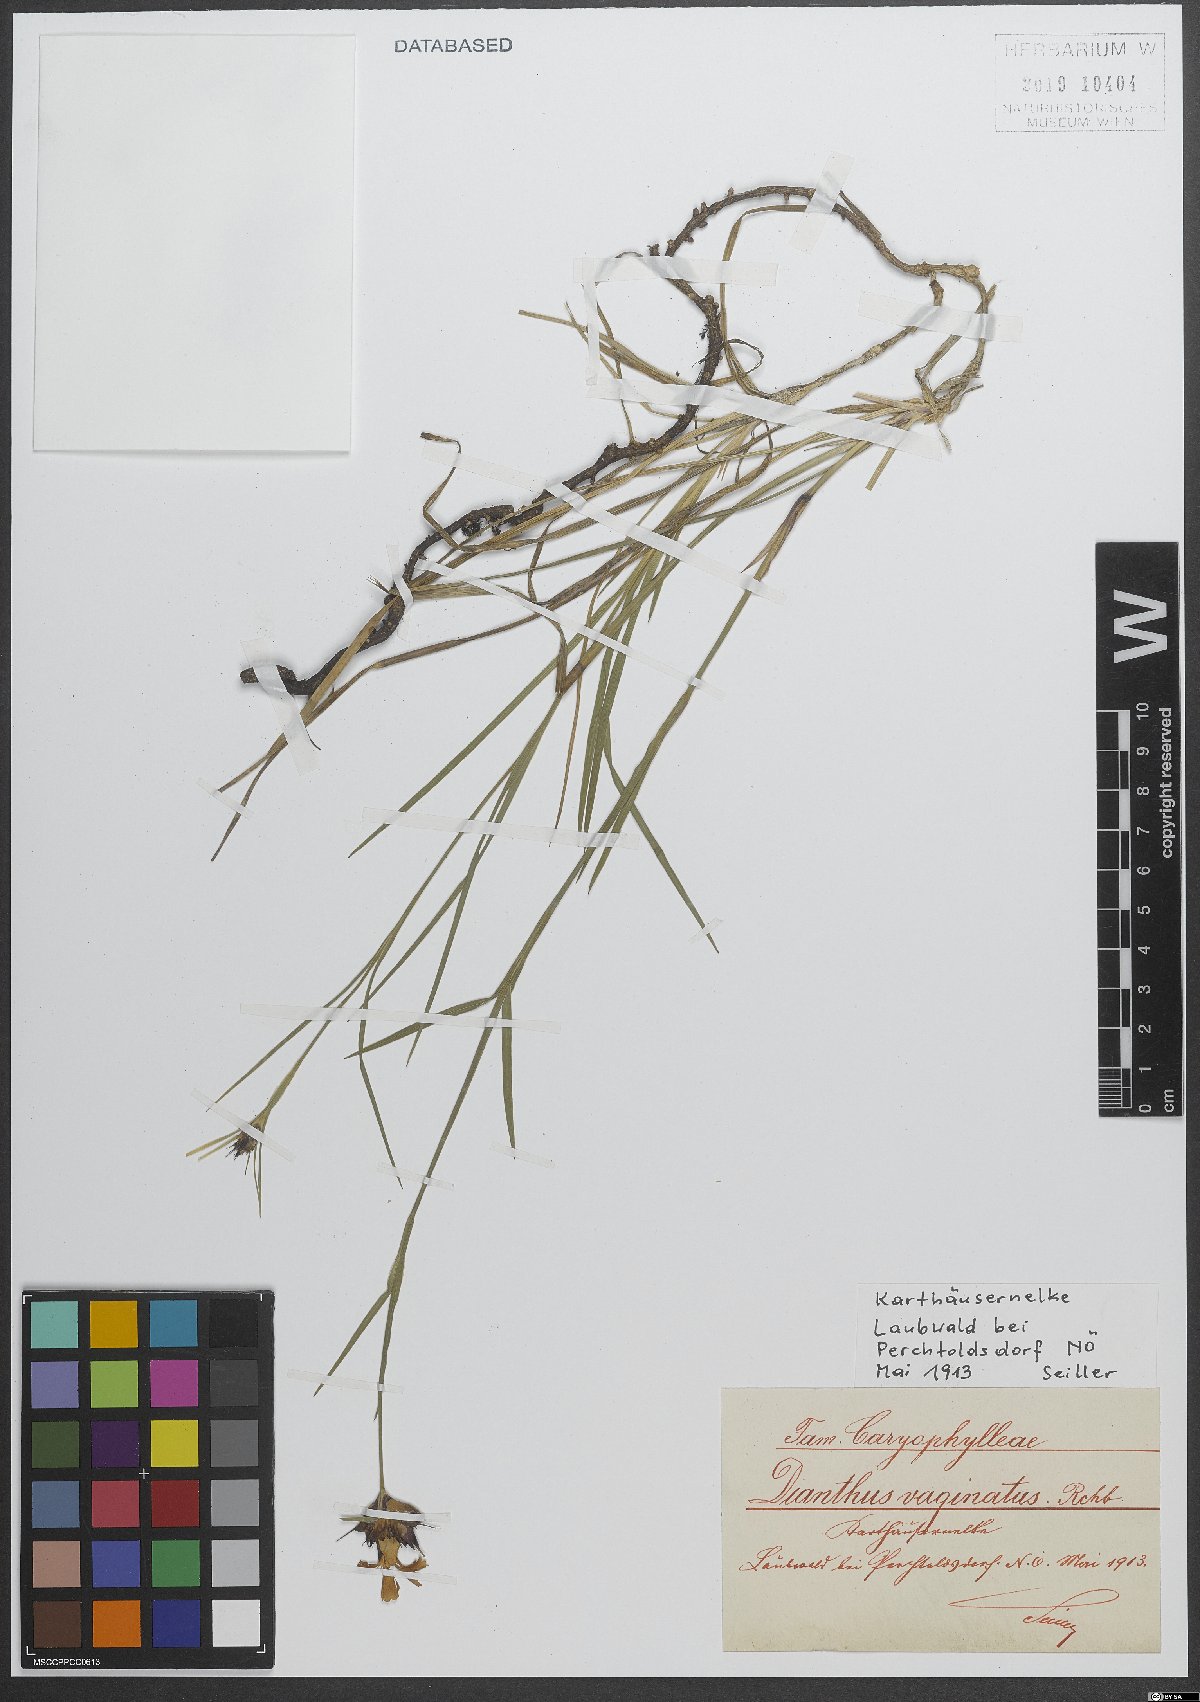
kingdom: Plantae
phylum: Tracheophyta
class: Magnoliopsida
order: Caryophyllales
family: Caryophyllaceae
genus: Dianthus
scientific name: Dianthus carthusianorum
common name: Carthusian pink
